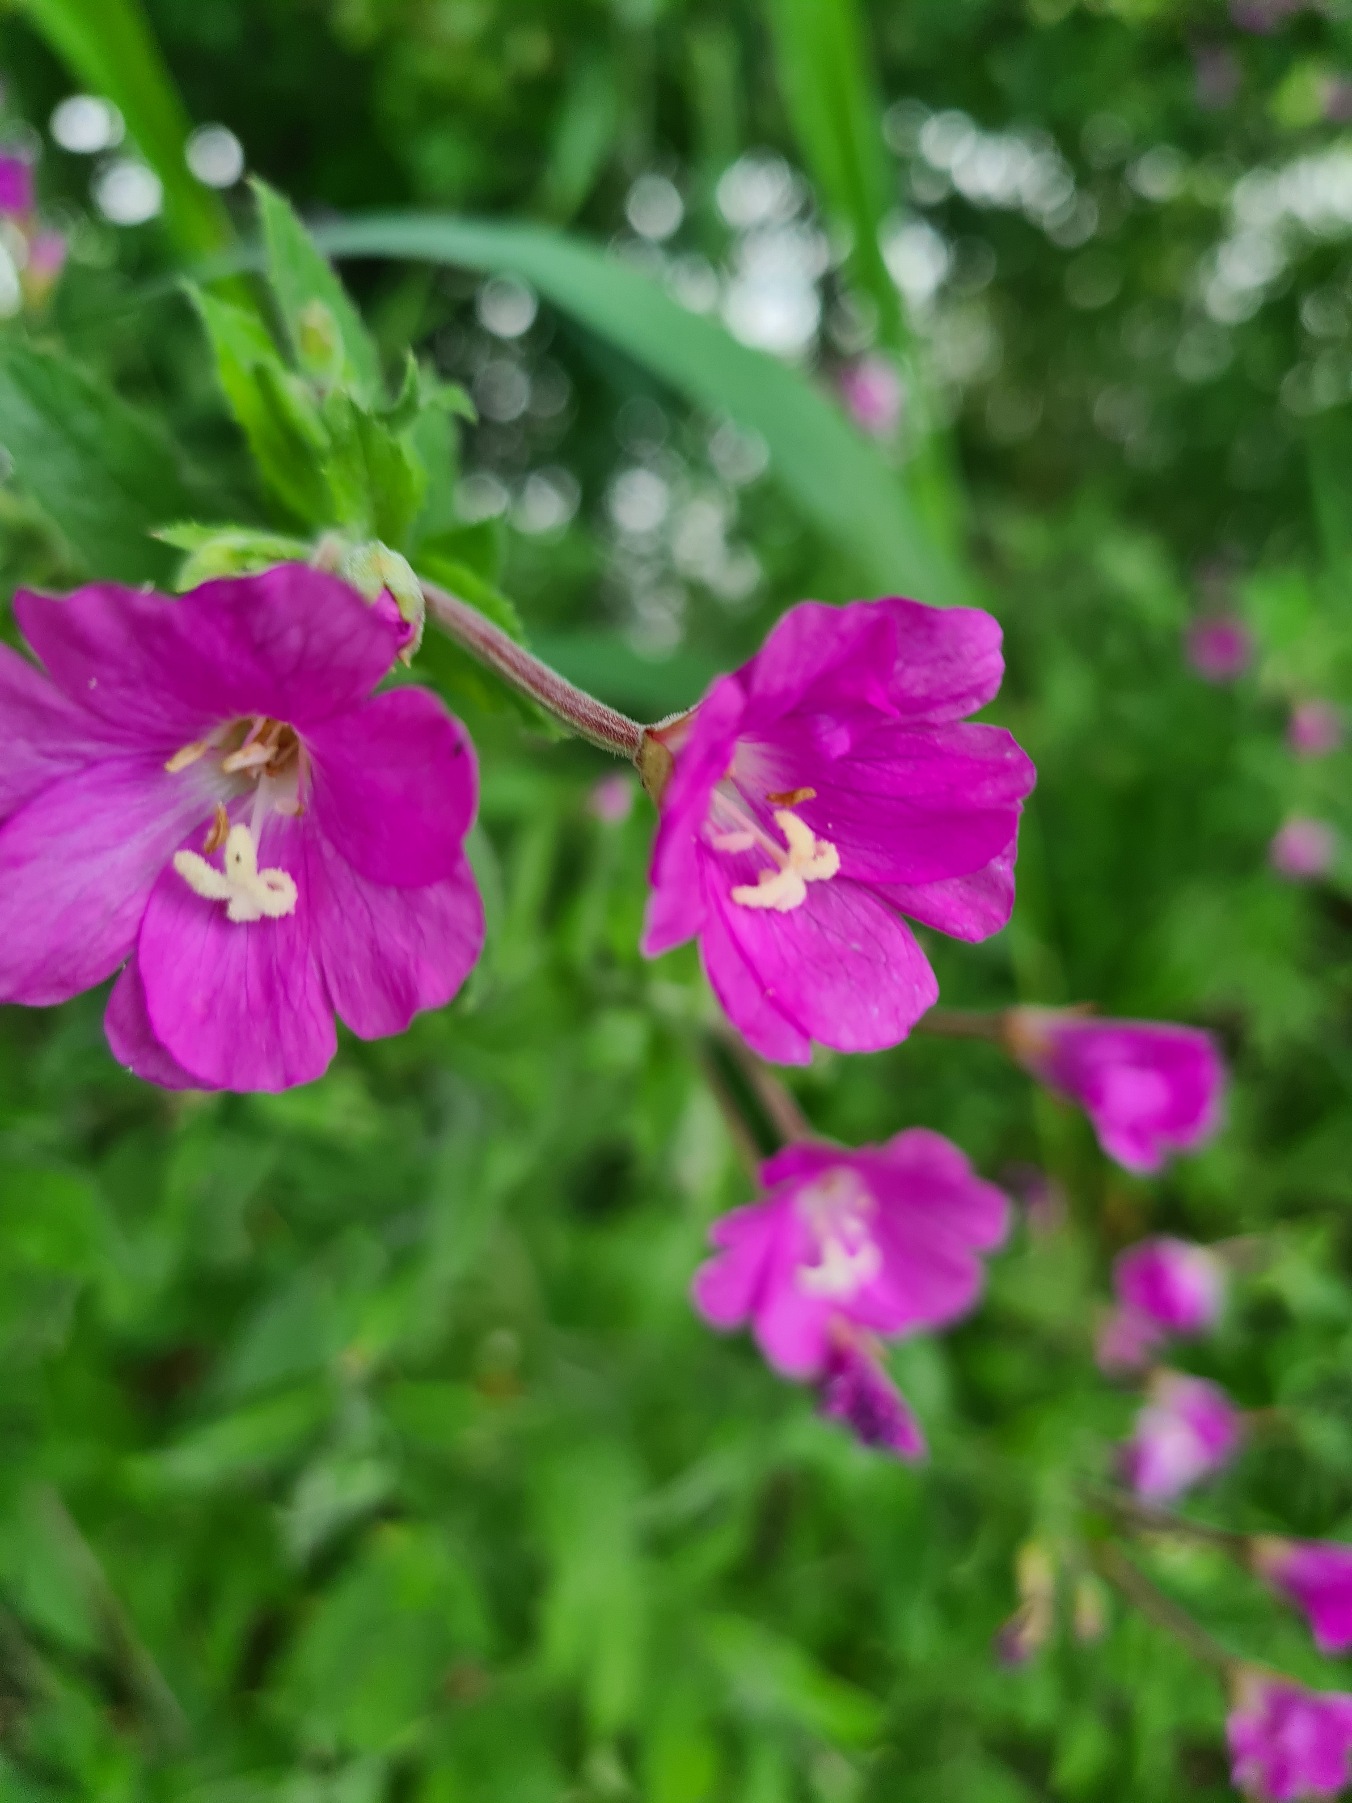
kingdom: Plantae
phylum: Tracheophyta
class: Magnoliopsida
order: Myrtales
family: Onagraceae
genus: Epilobium
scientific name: Epilobium hirsutum
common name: Lådden dueurt
